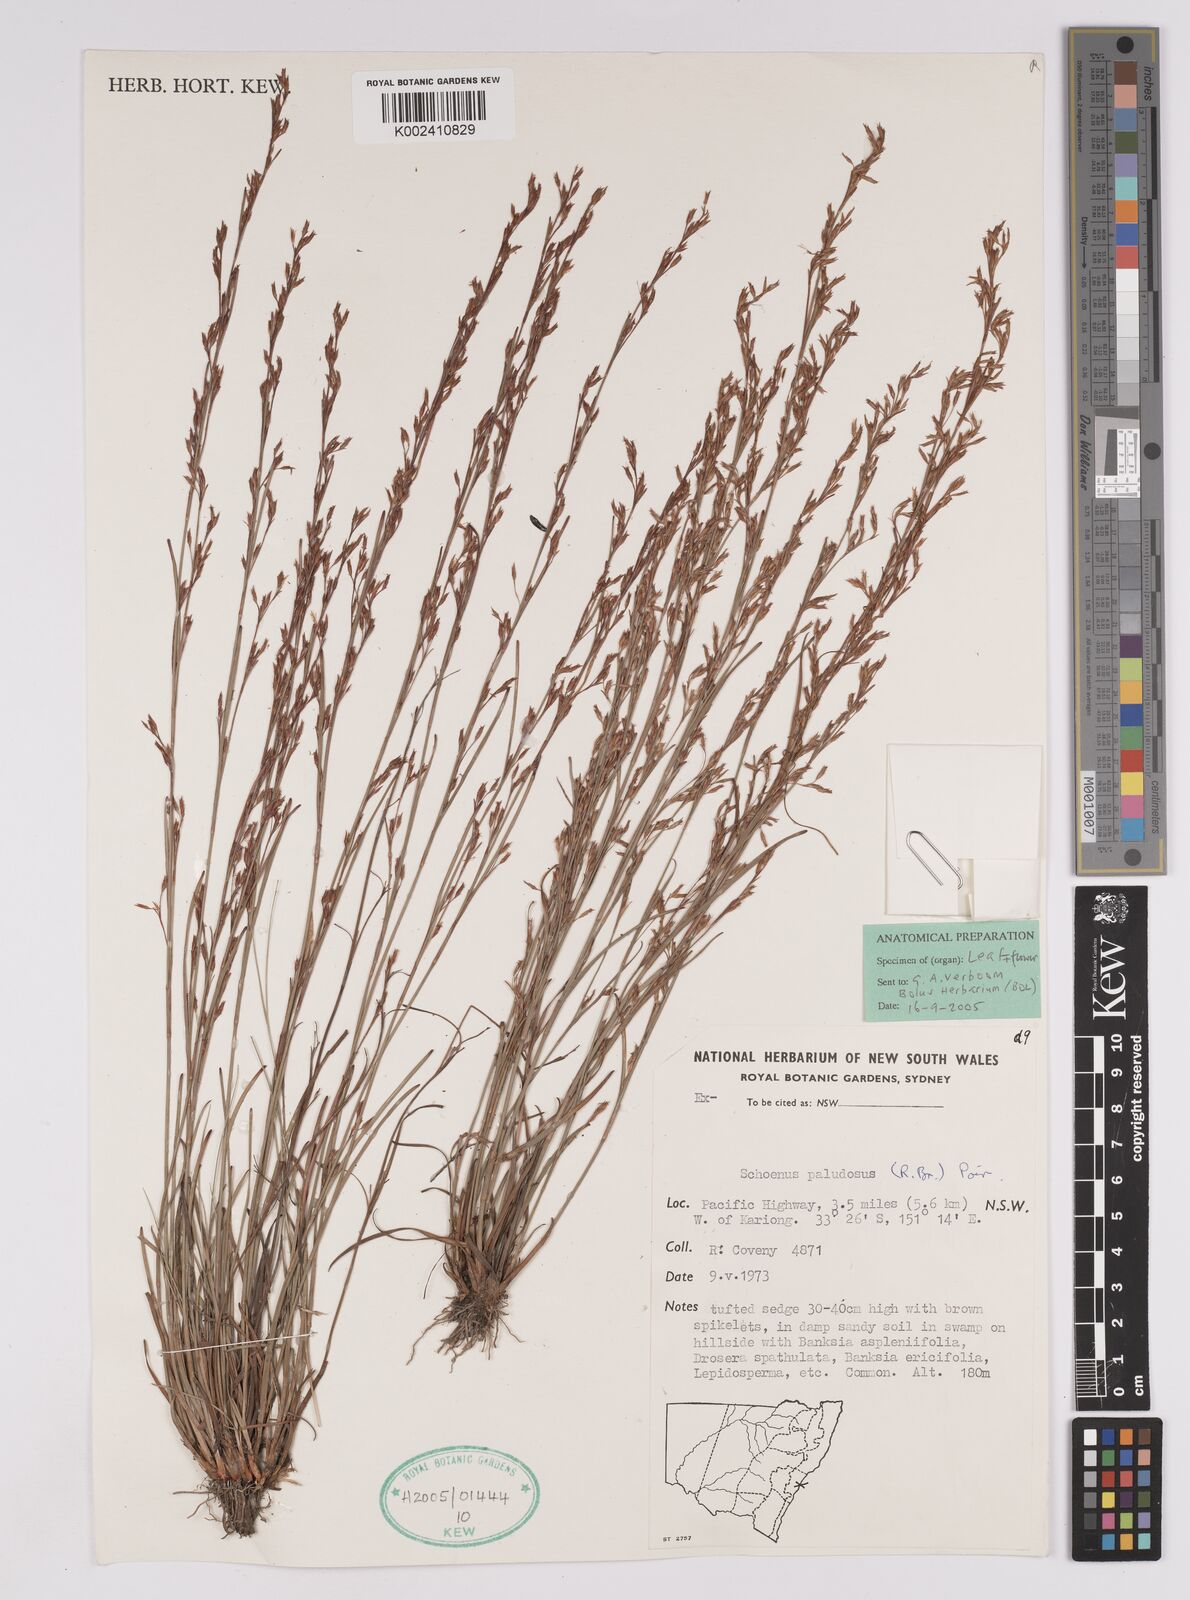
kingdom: Plantae
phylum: Tracheophyta
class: Liliopsida
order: Poales
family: Cyperaceae
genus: Anthelepis
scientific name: Anthelepis paludosa
